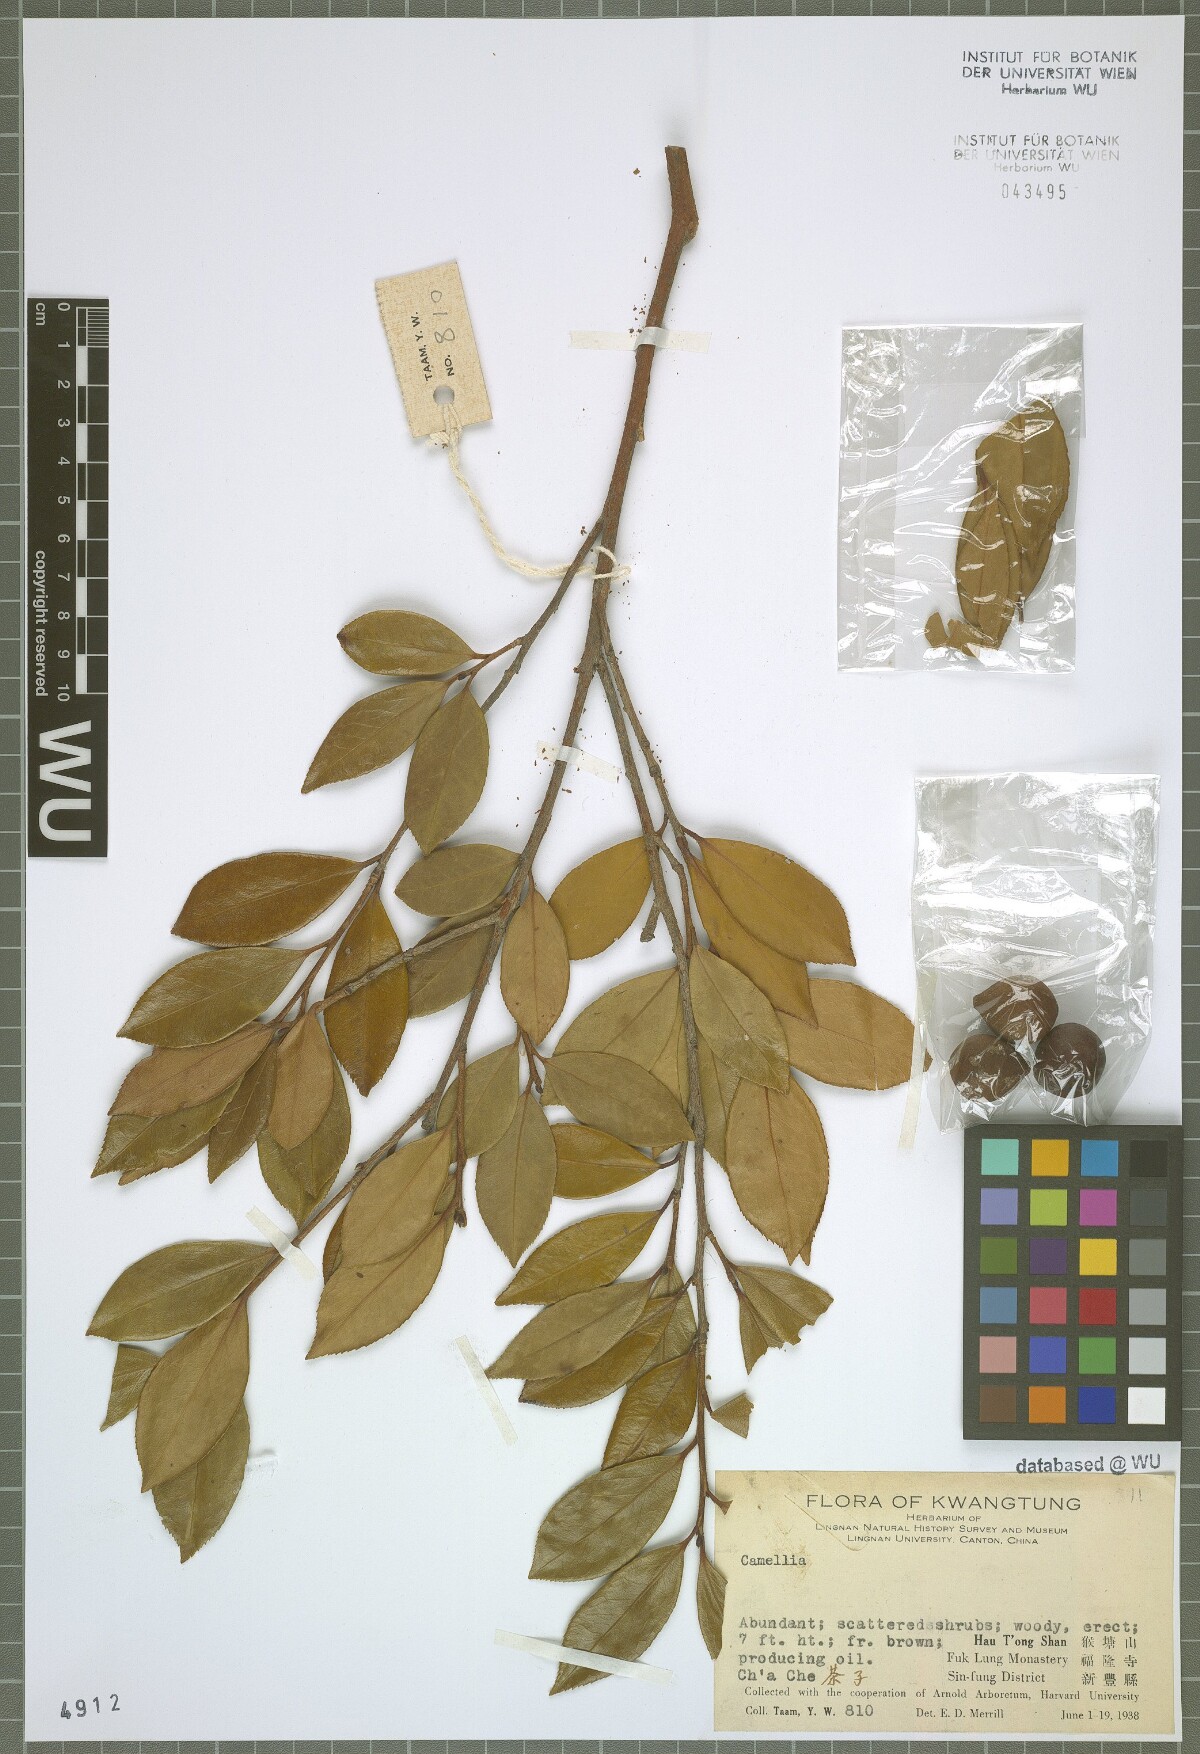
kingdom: Plantae
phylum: Tracheophyta
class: Magnoliopsida
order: Ericales
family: Theaceae
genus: Camellia
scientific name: Camellia oleifera
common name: Tea-oil-plant
